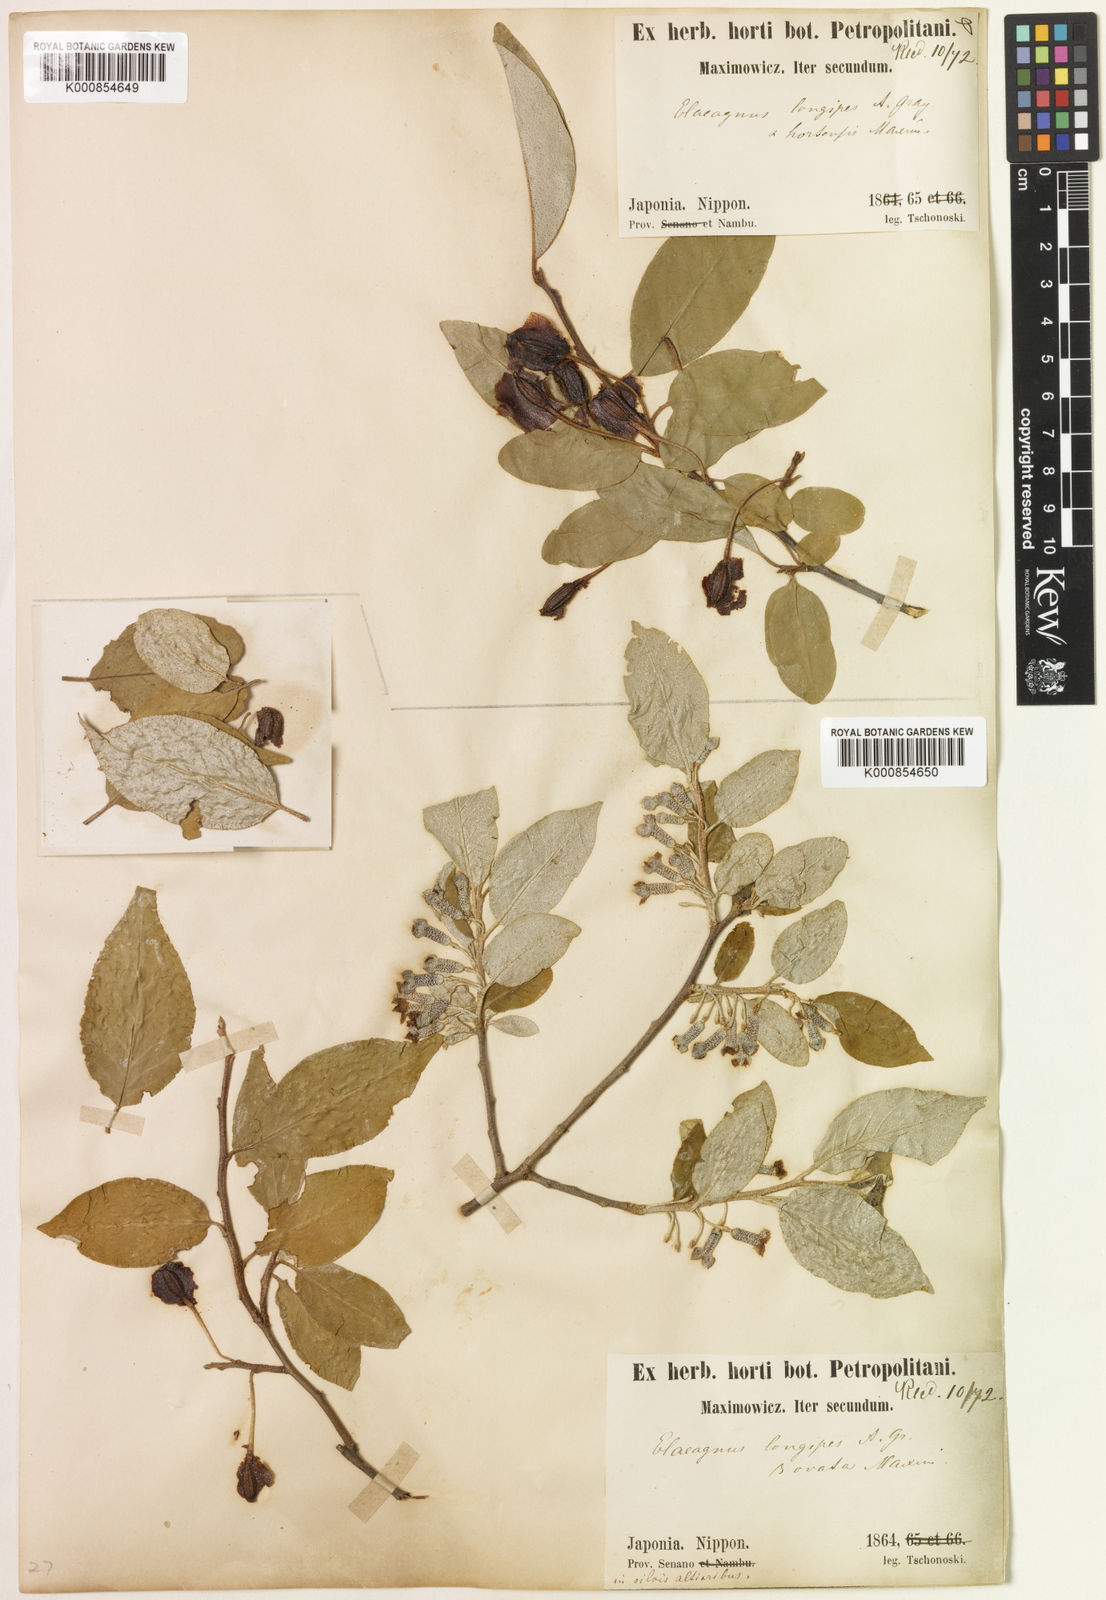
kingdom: Plantae
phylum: Tracheophyta
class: Magnoliopsida
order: Rosales
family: Elaeagnaceae
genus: Elaeagnus
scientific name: Elaeagnus multiflora
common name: Cherry elaeagnus
